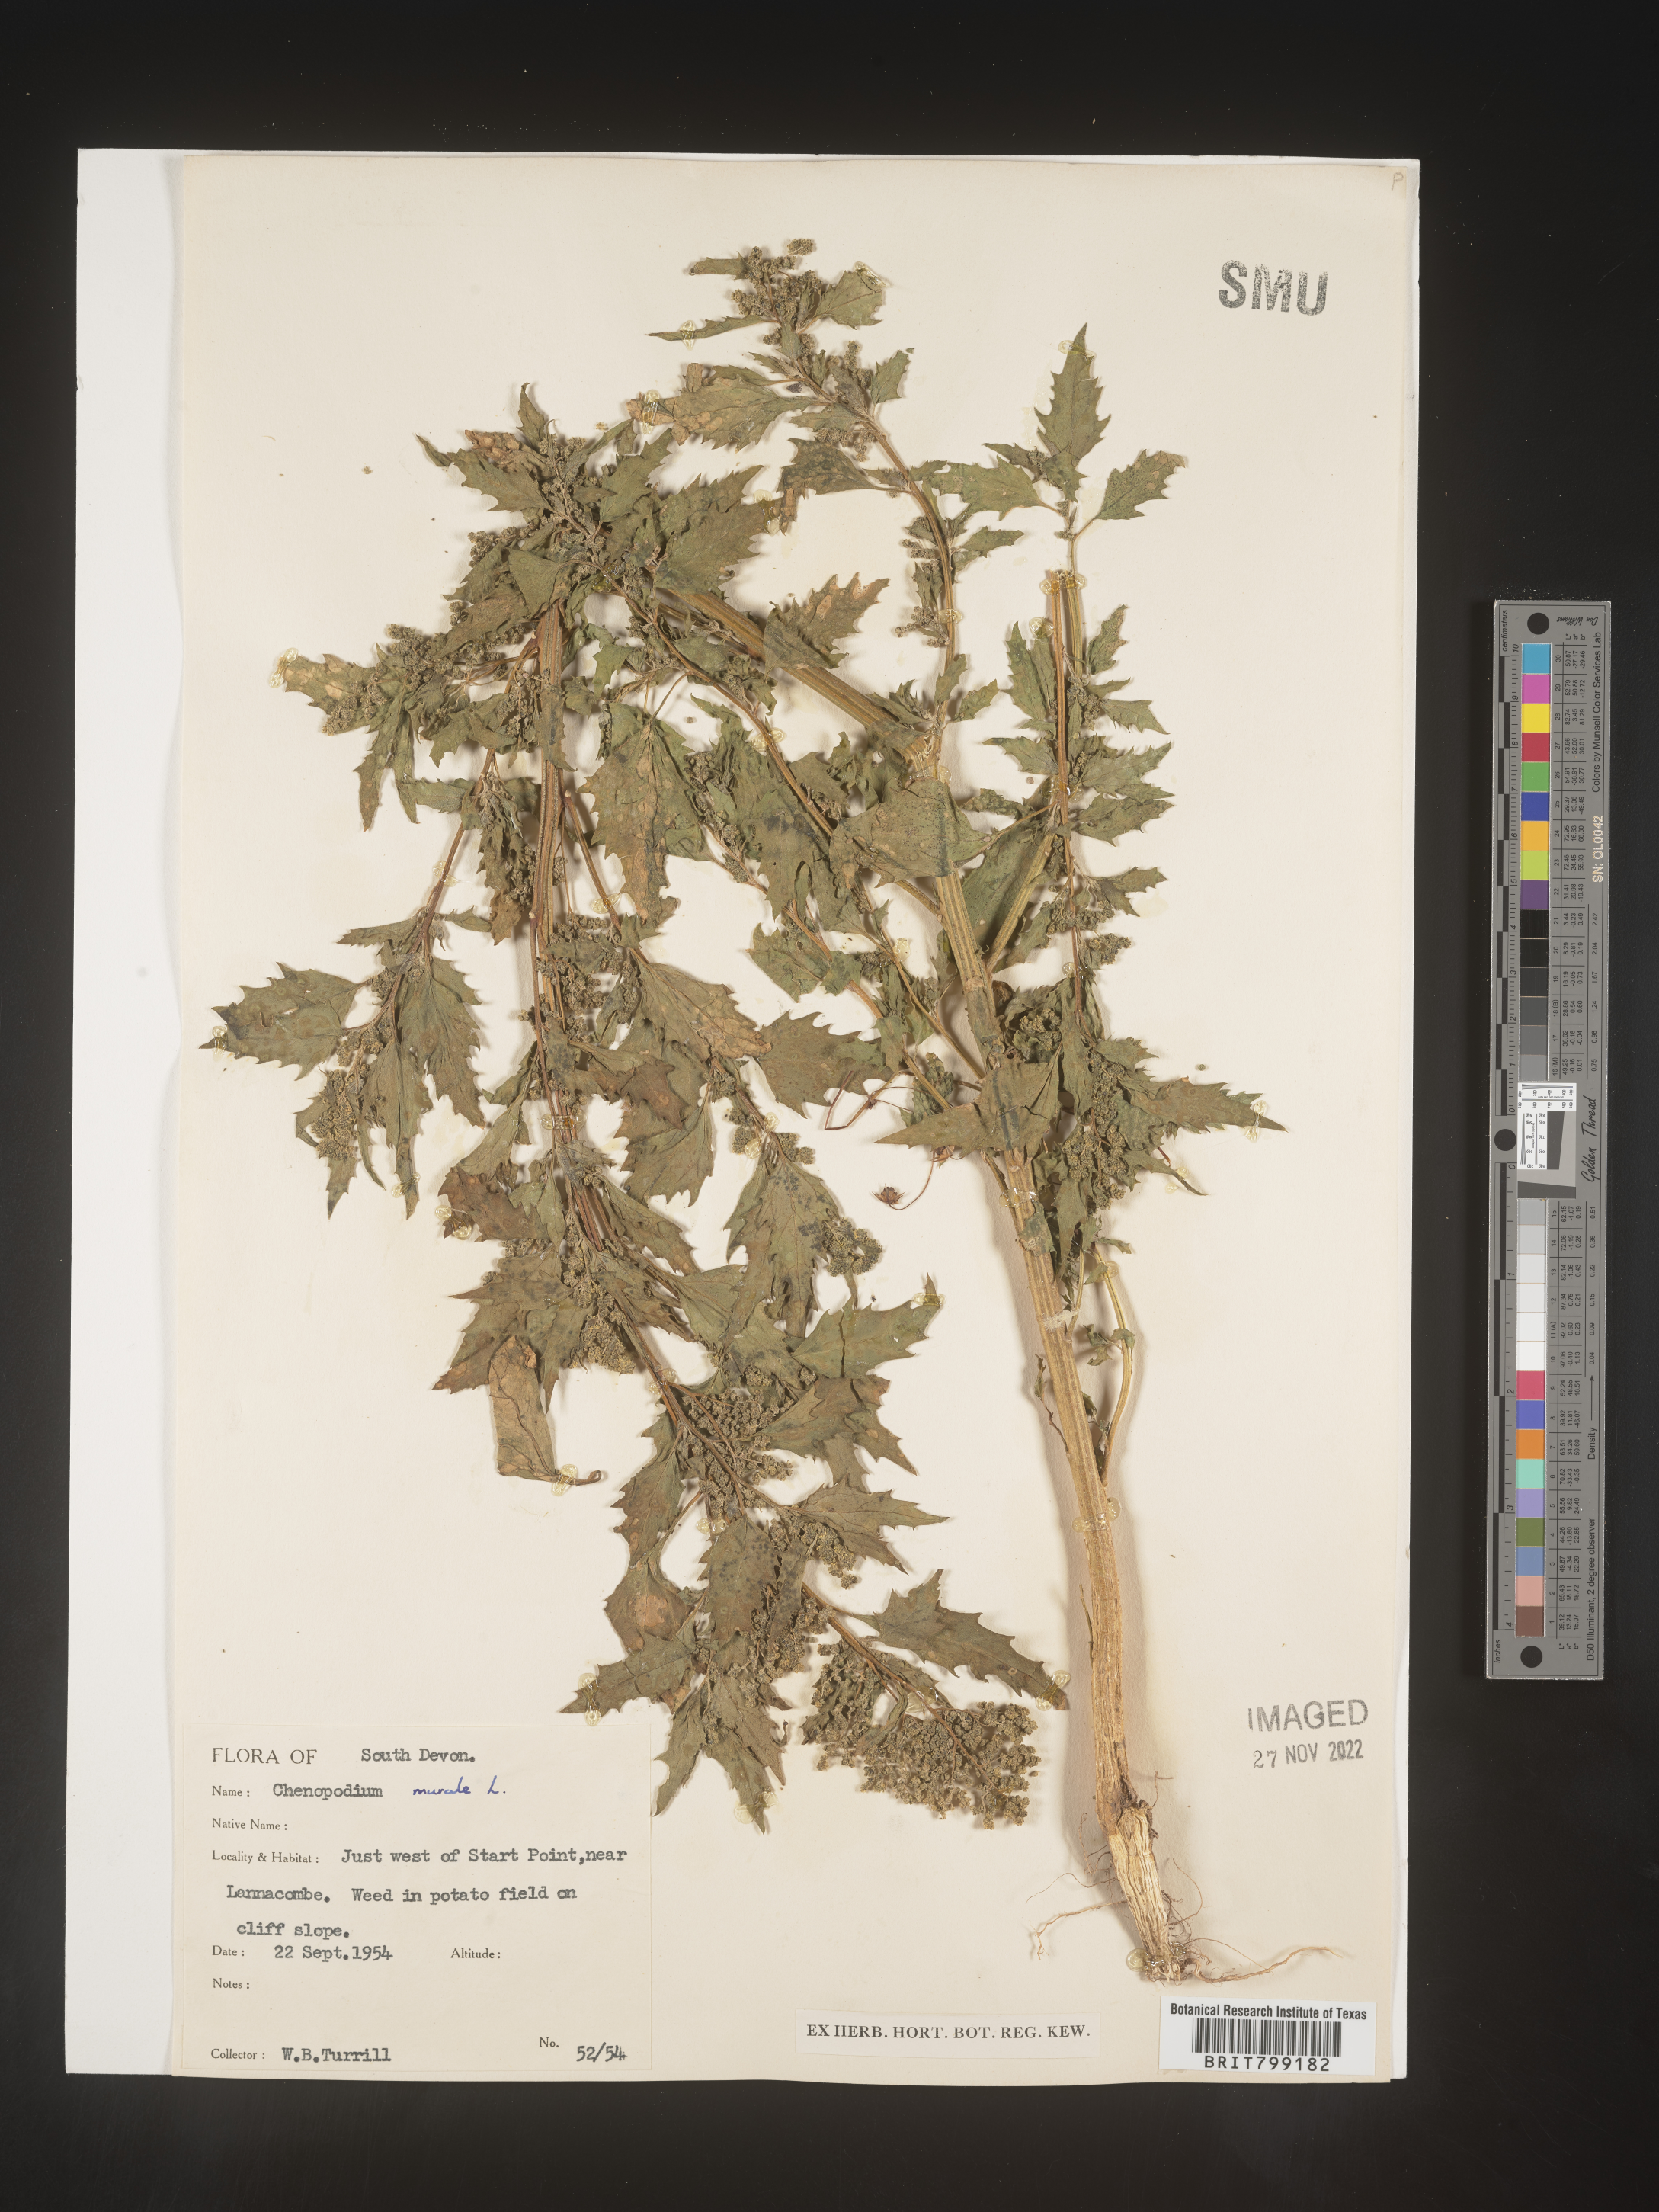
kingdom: Plantae
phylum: Tracheophyta
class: Magnoliopsida
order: Caryophyllales
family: Amaranthaceae
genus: Chenopodiastrum
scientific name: Chenopodiastrum murale
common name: Sowbane
